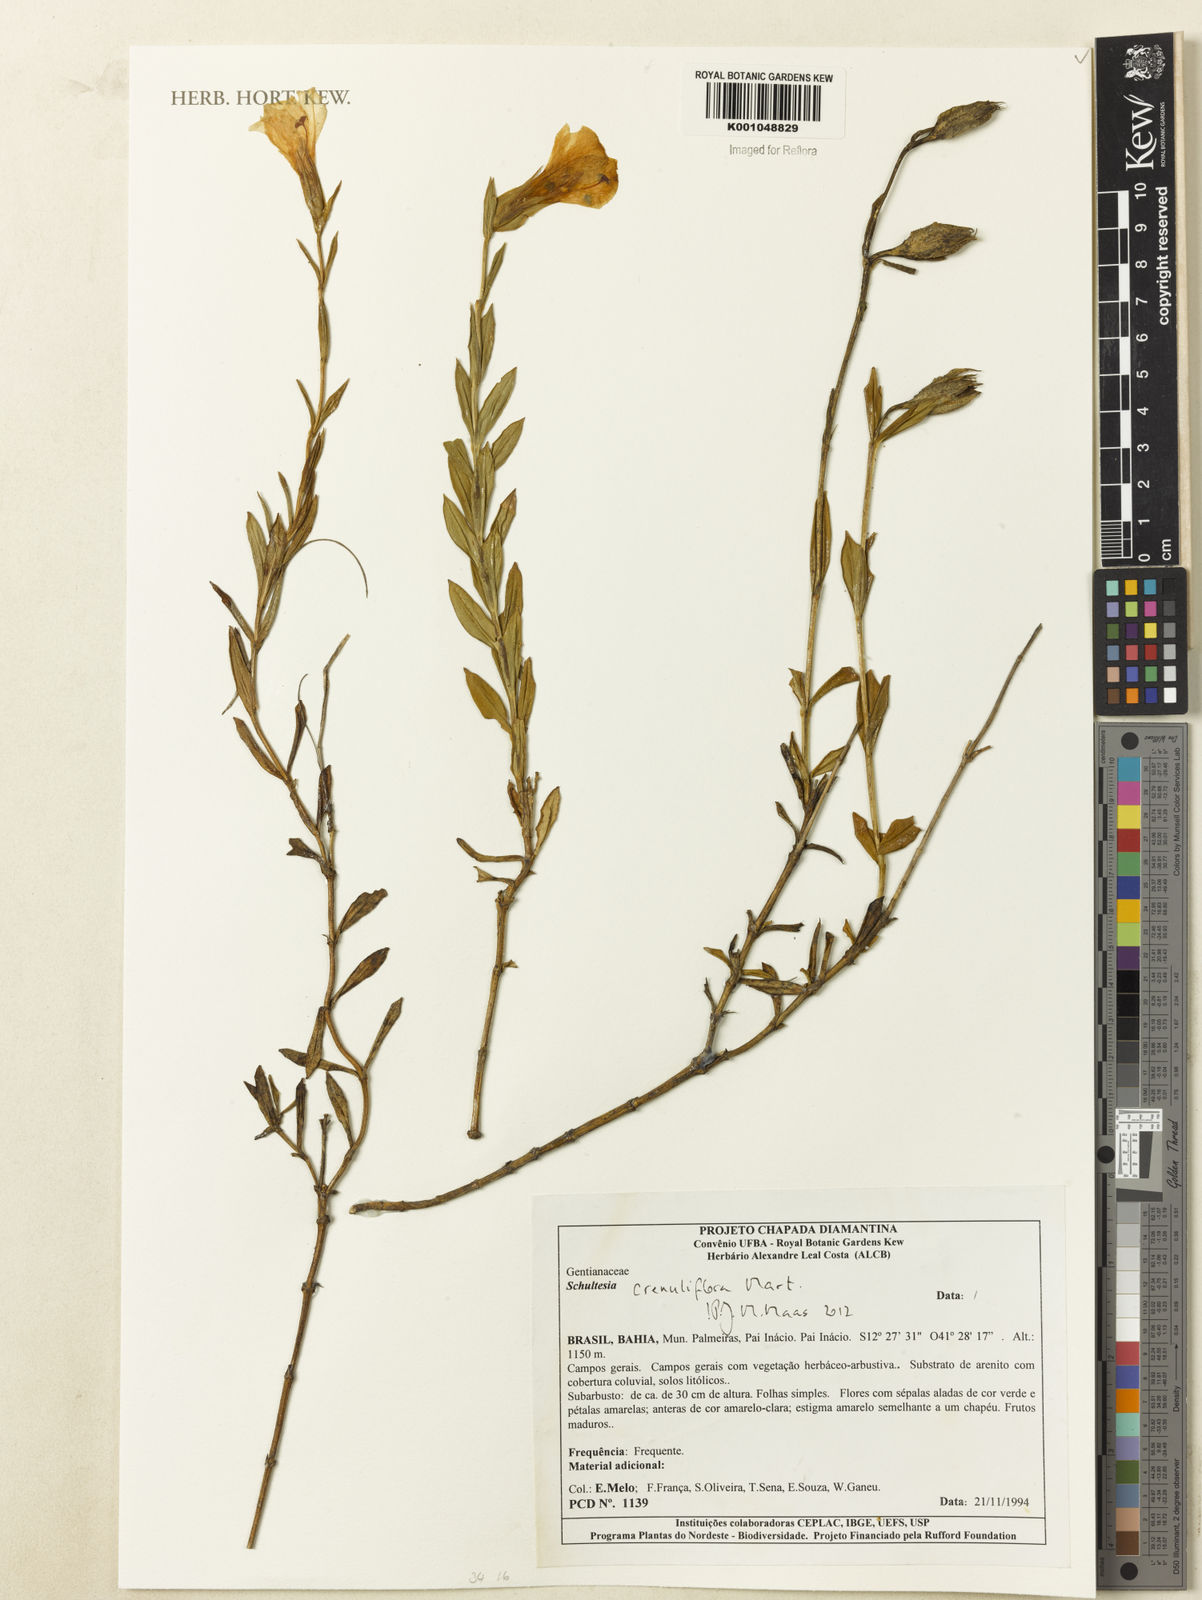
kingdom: Plantae
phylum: Tracheophyta
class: Magnoliopsida
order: Gentianales
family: Gentianaceae
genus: Schultesia
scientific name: Schultesia crenuliflora
